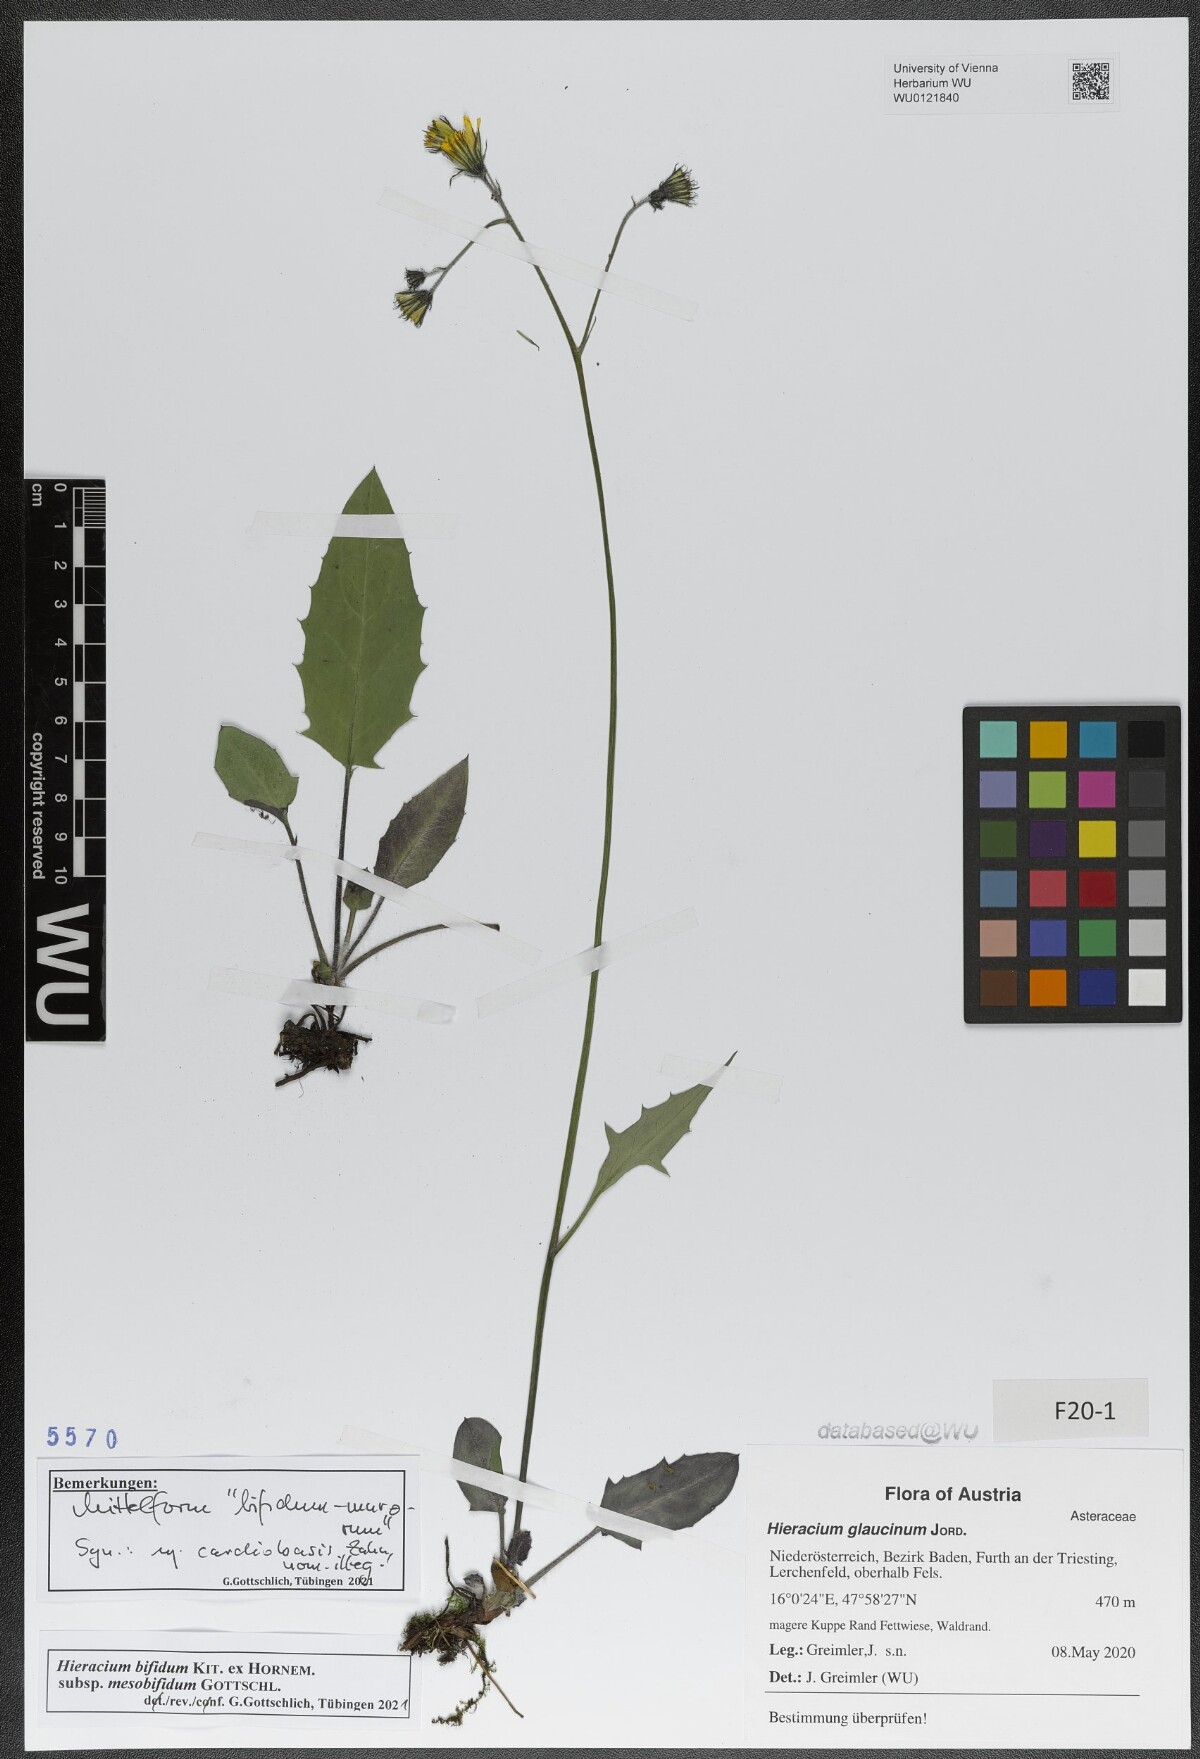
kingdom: Plantae
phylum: Tracheophyta
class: Magnoliopsida
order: Asterales
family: Asteraceae
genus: Hieracium
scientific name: Hieracium bifidum
